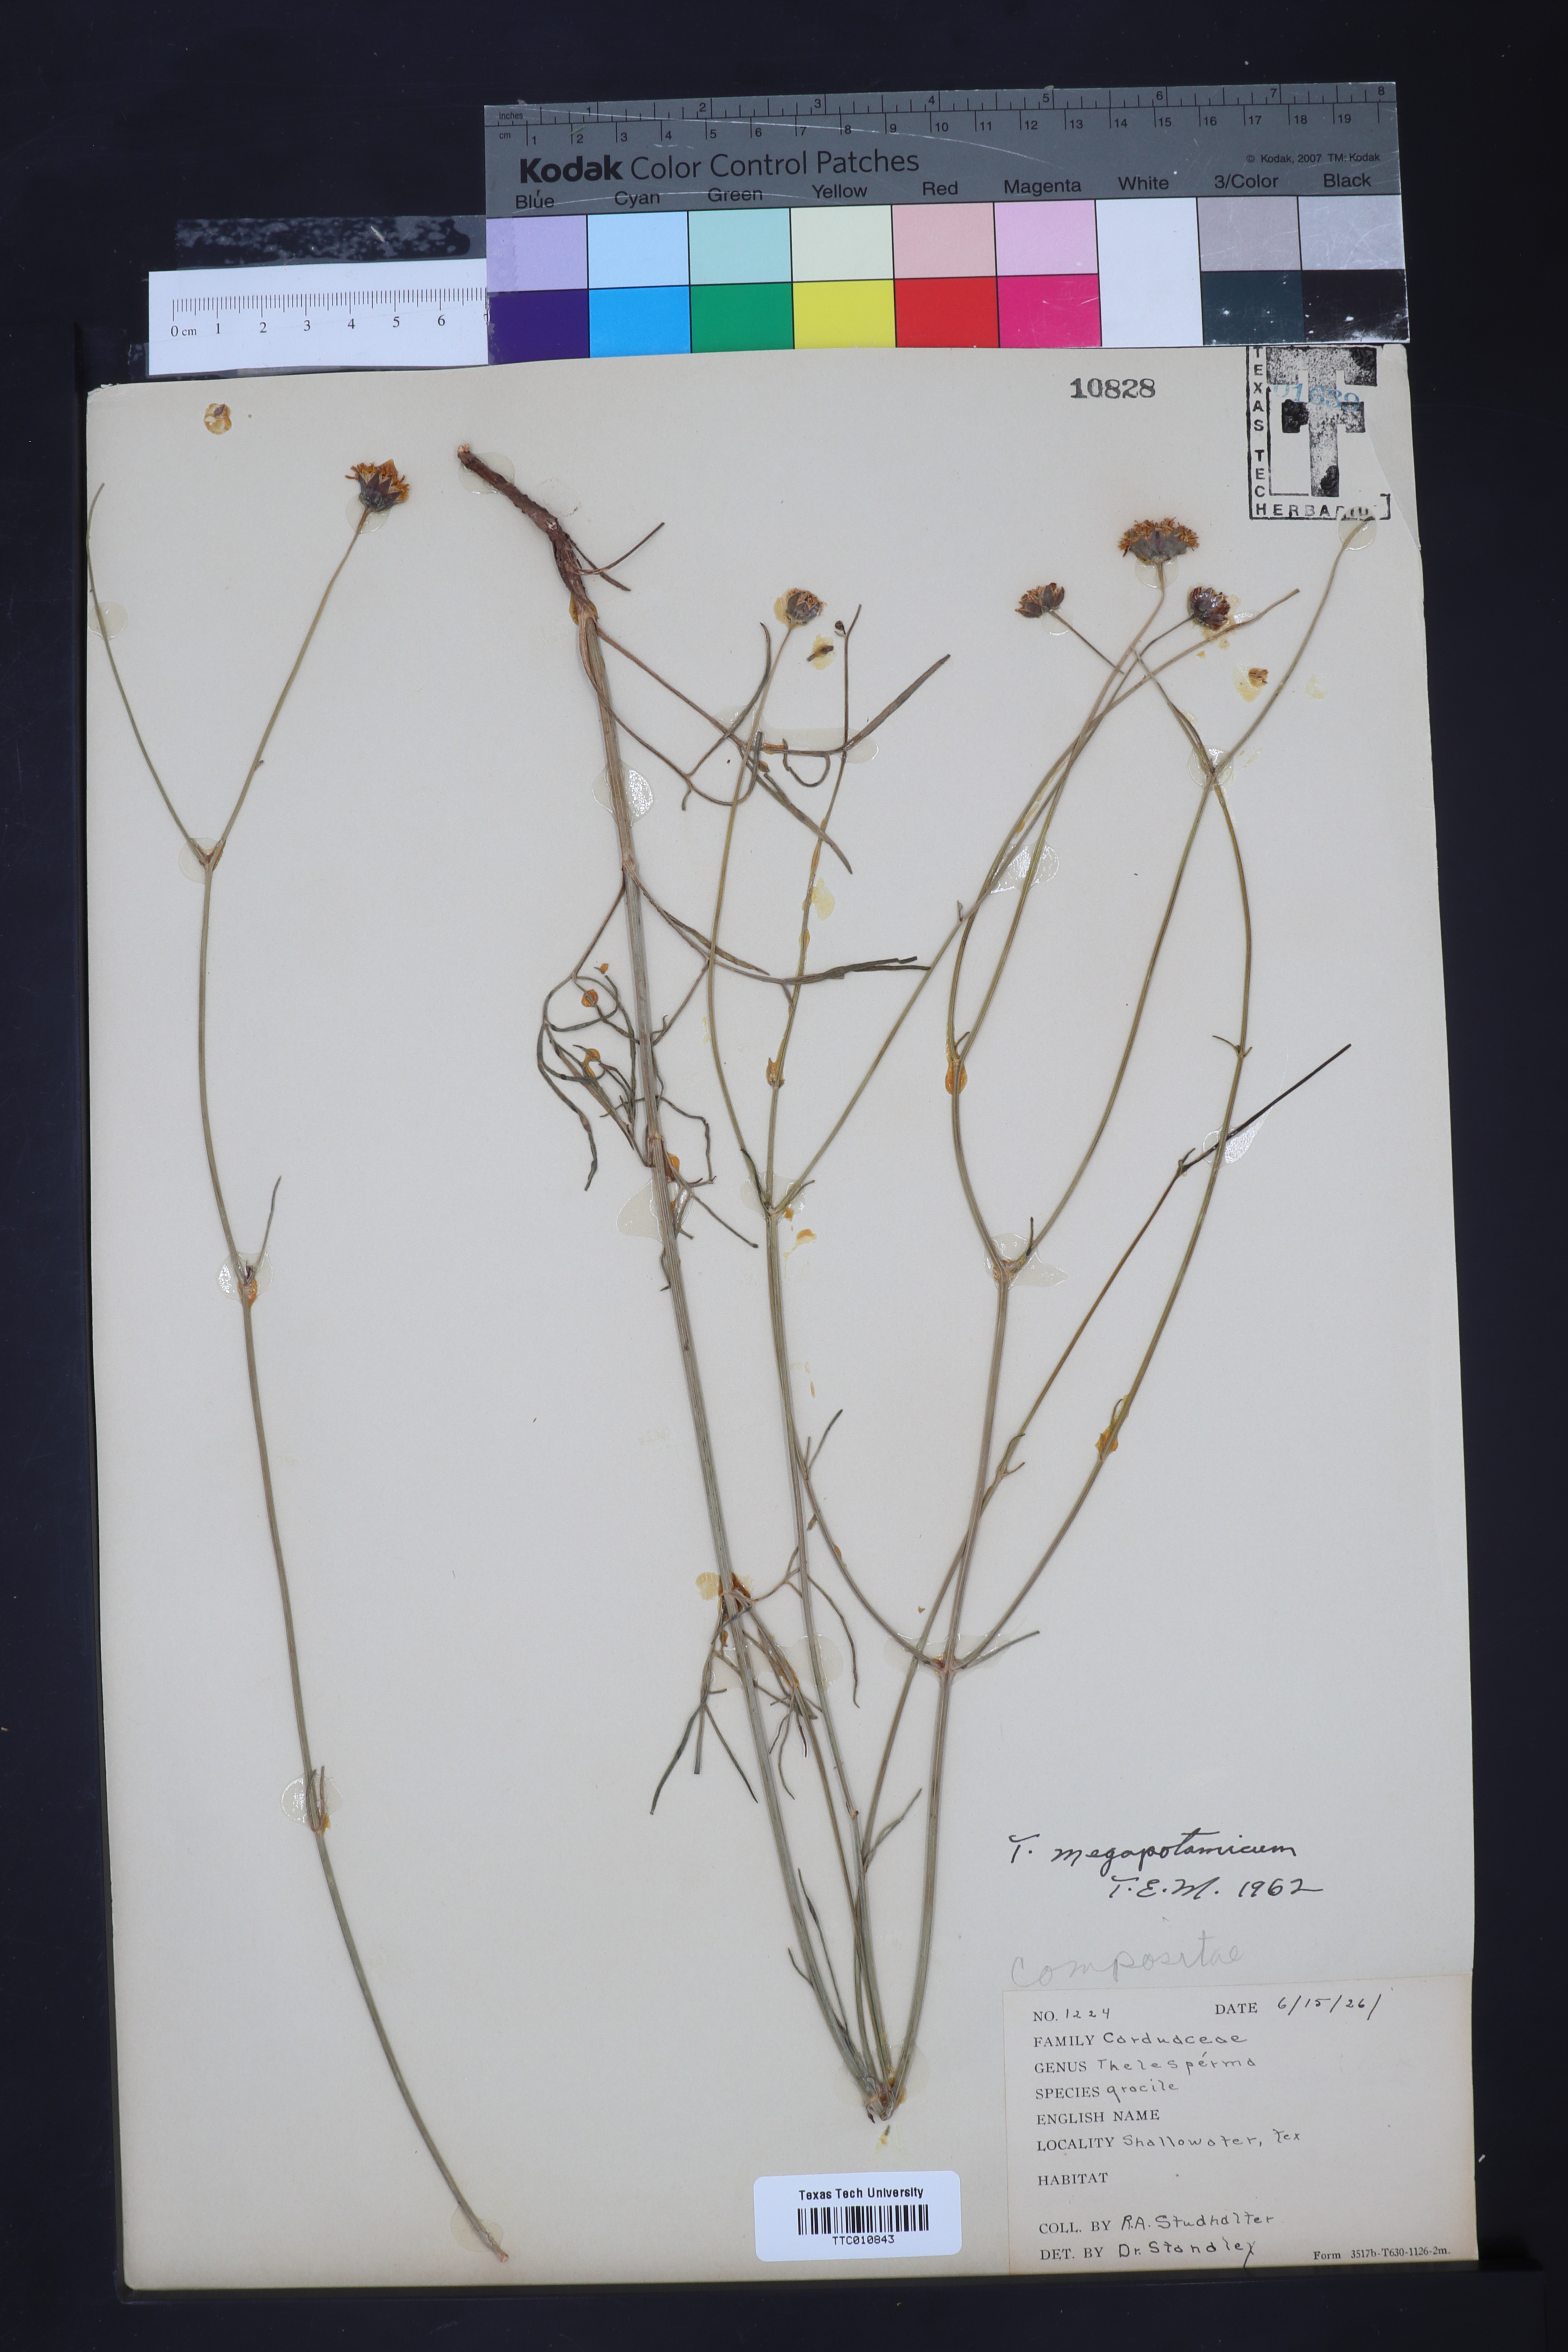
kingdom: Plantae
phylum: Tracheophyta
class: Magnoliopsida
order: Asterales
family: Asteraceae
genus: Thelesperma
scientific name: Thelesperma megapotamicum
